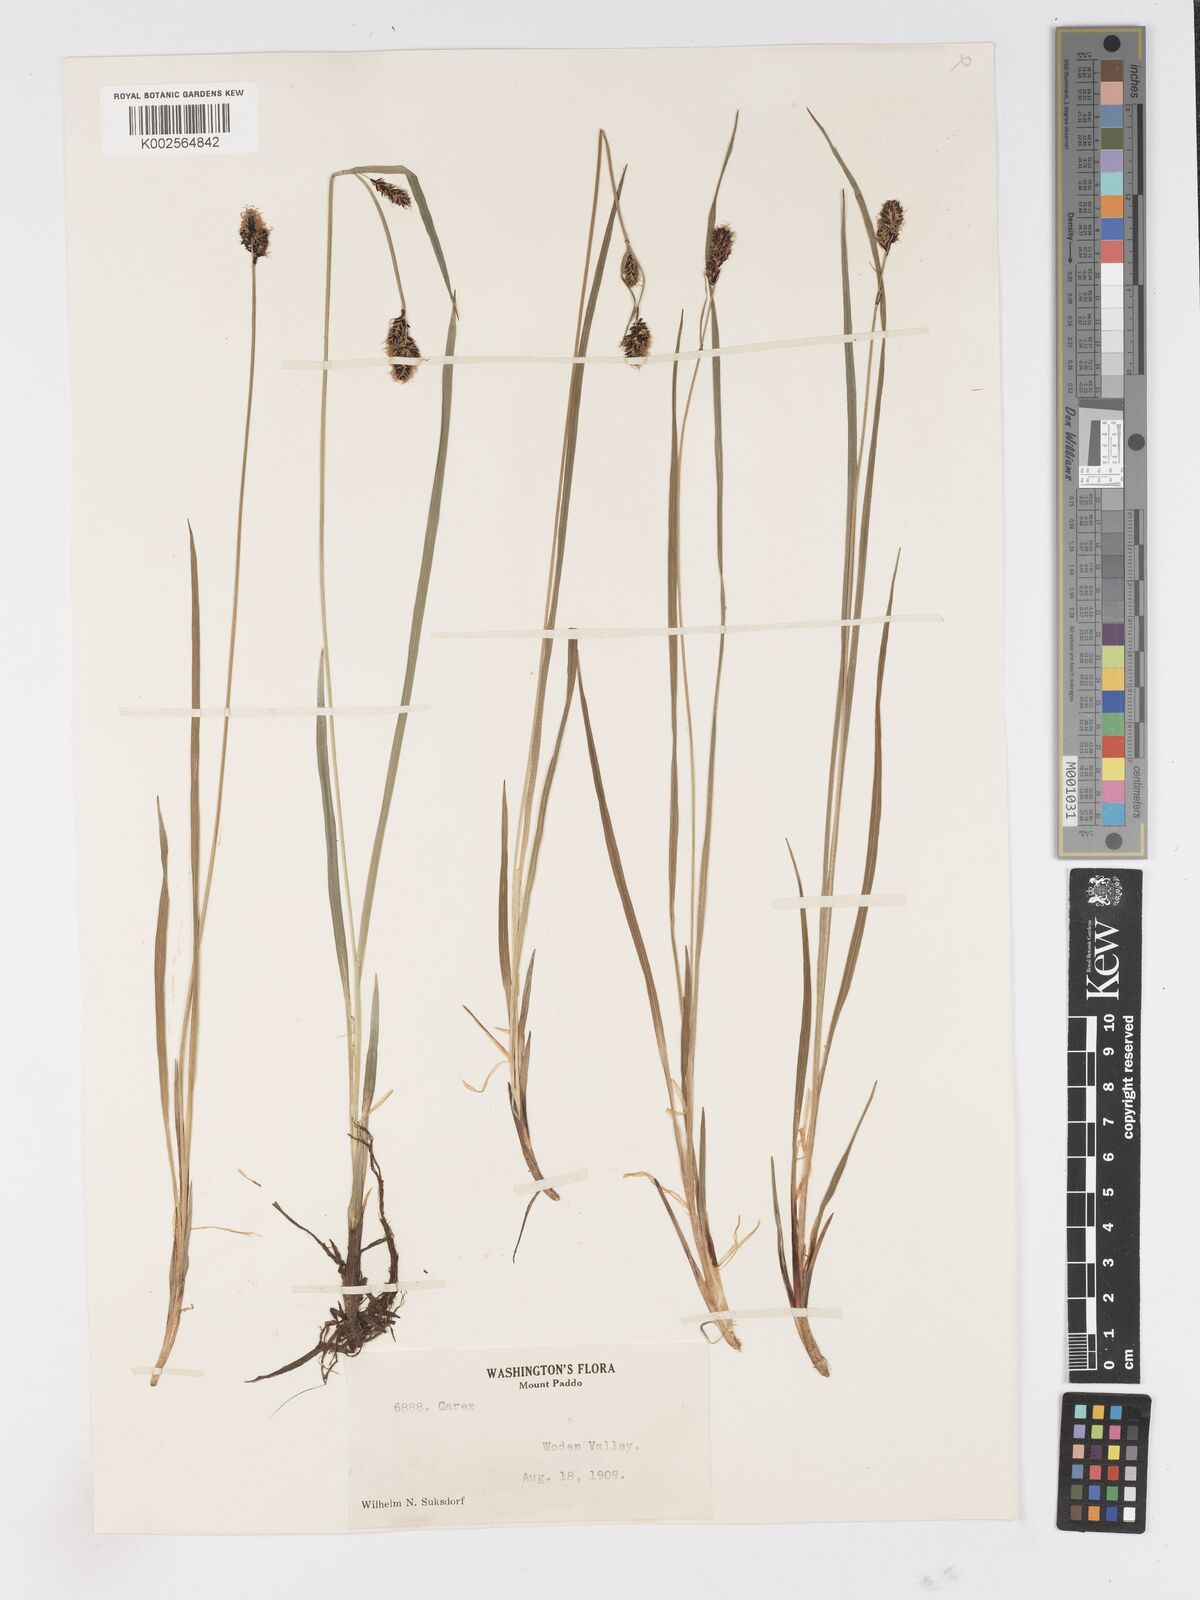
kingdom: Plantae
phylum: Tracheophyta
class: Liliopsida
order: Poales
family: Cyperaceae
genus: Carex
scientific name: Carex
